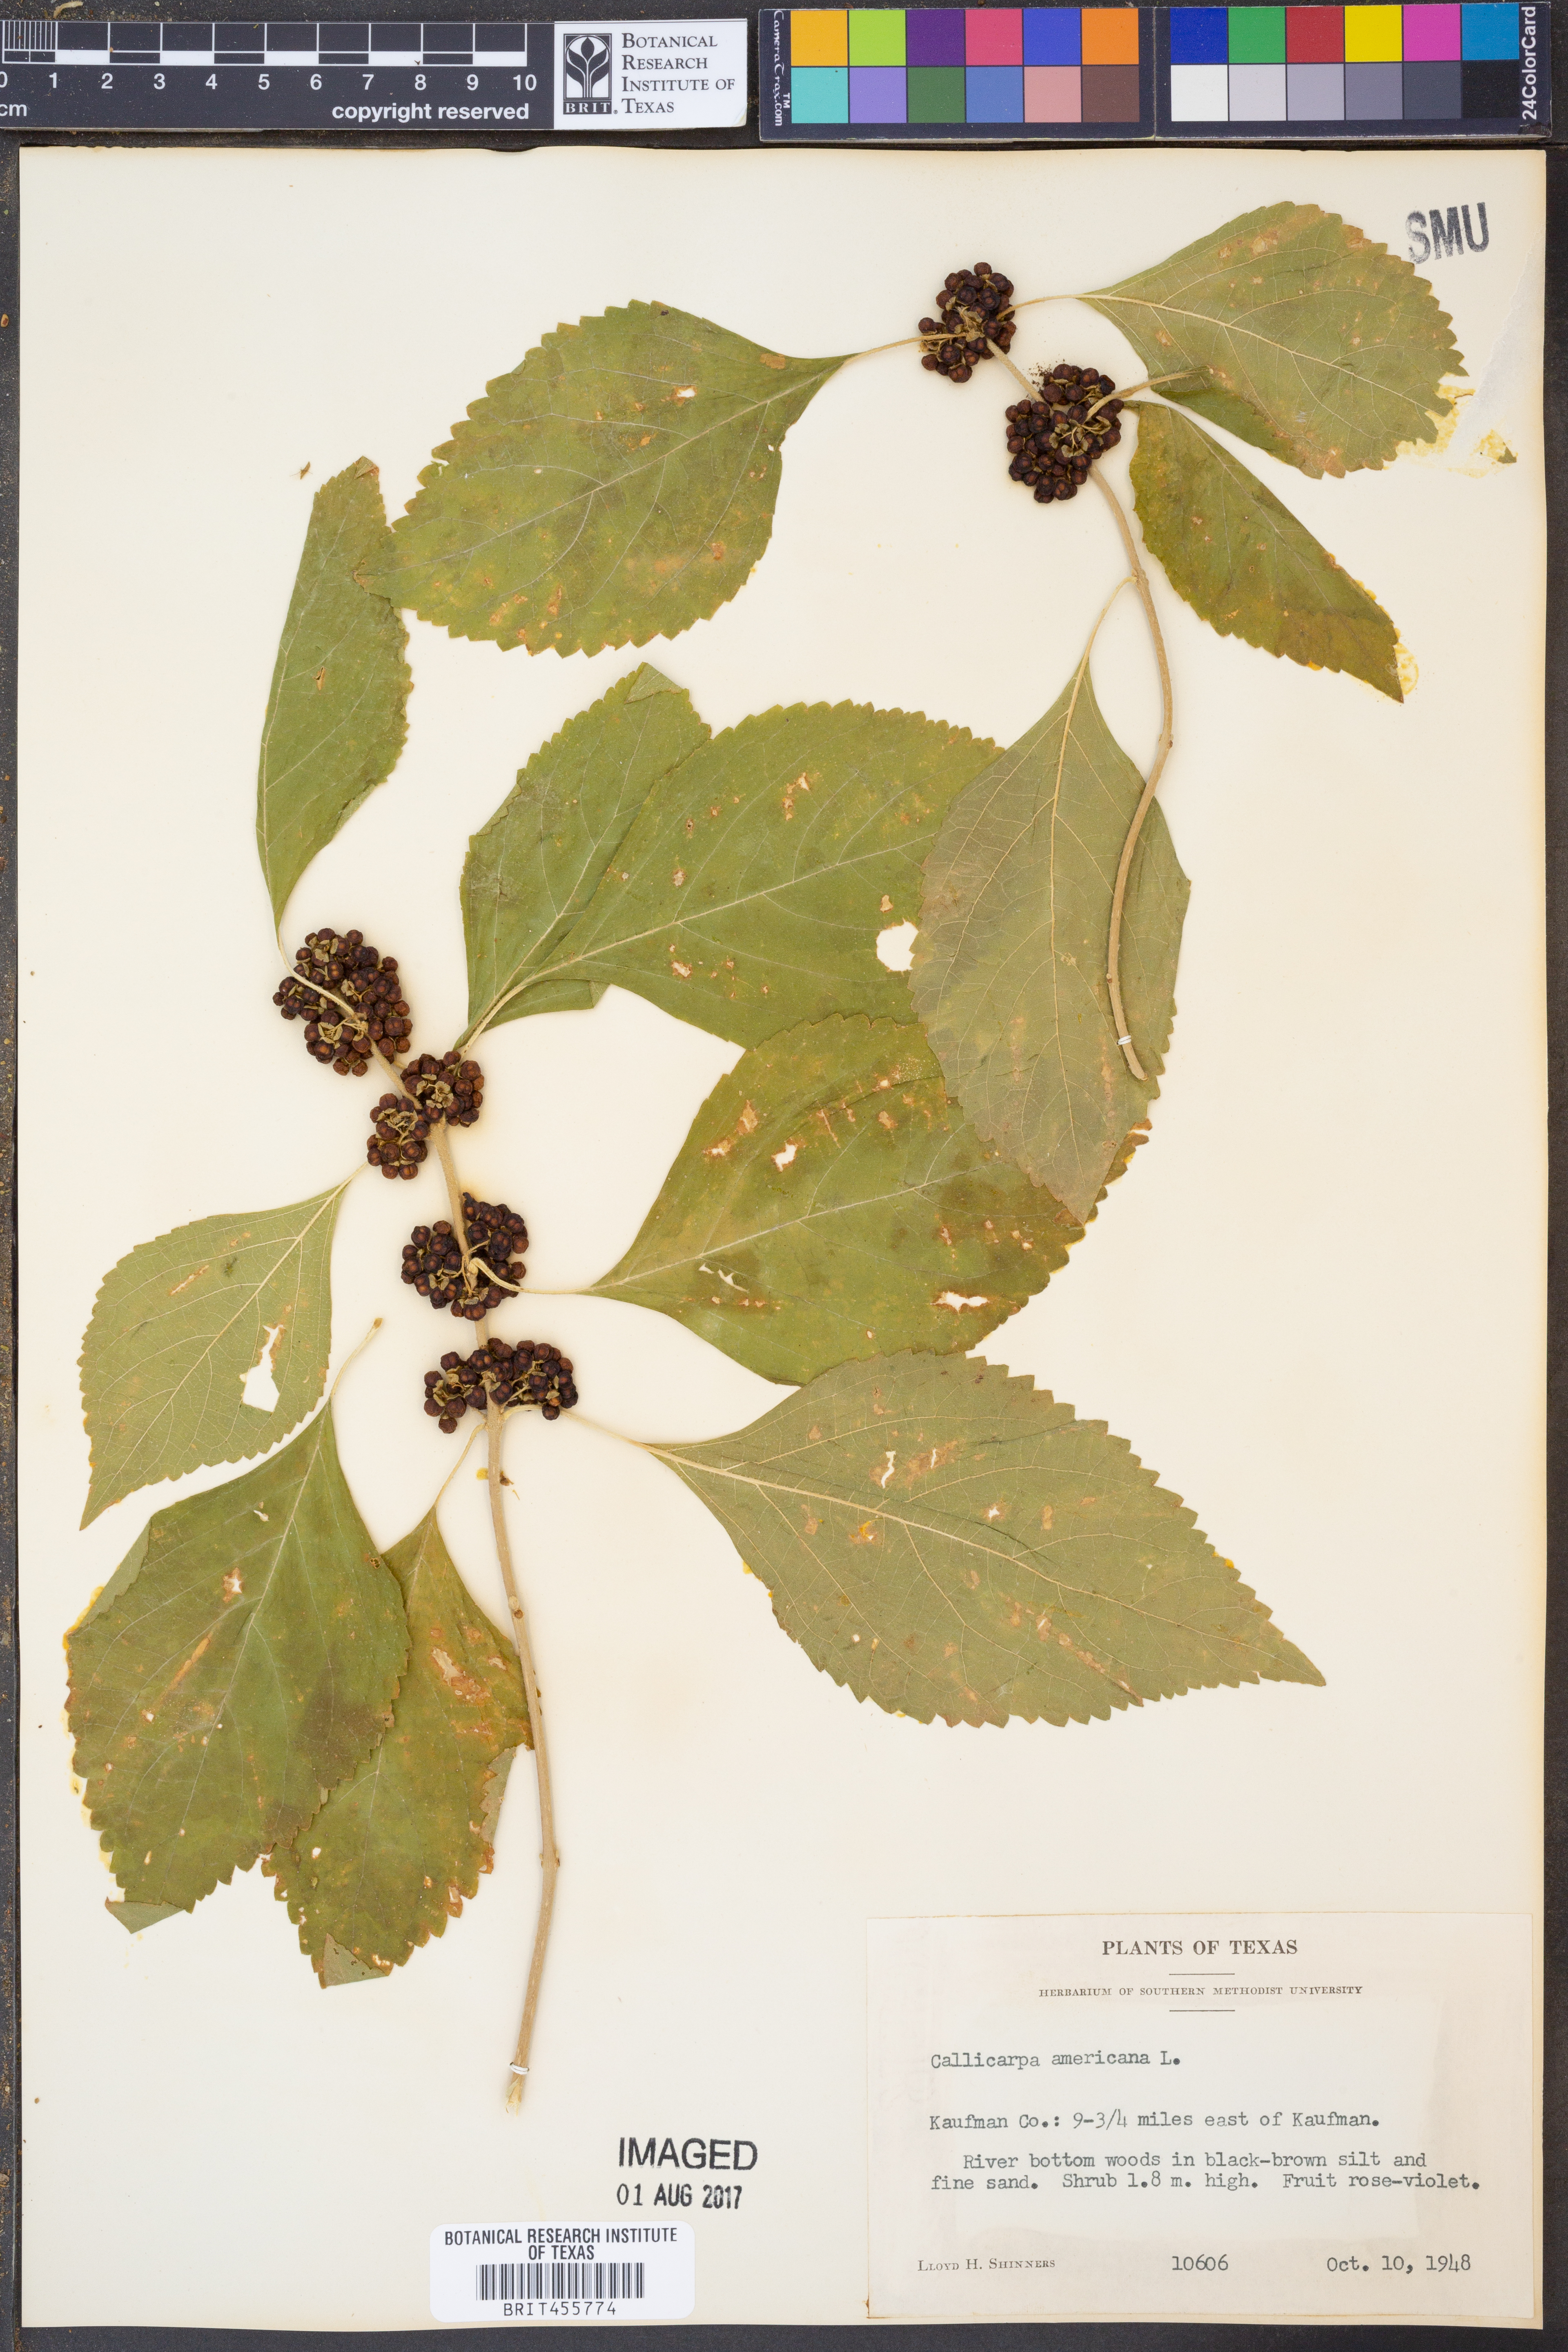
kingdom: Plantae
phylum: Tracheophyta
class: Magnoliopsida
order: Lamiales
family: Lamiaceae
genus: Callicarpa
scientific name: Callicarpa americana
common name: American beautyberry
